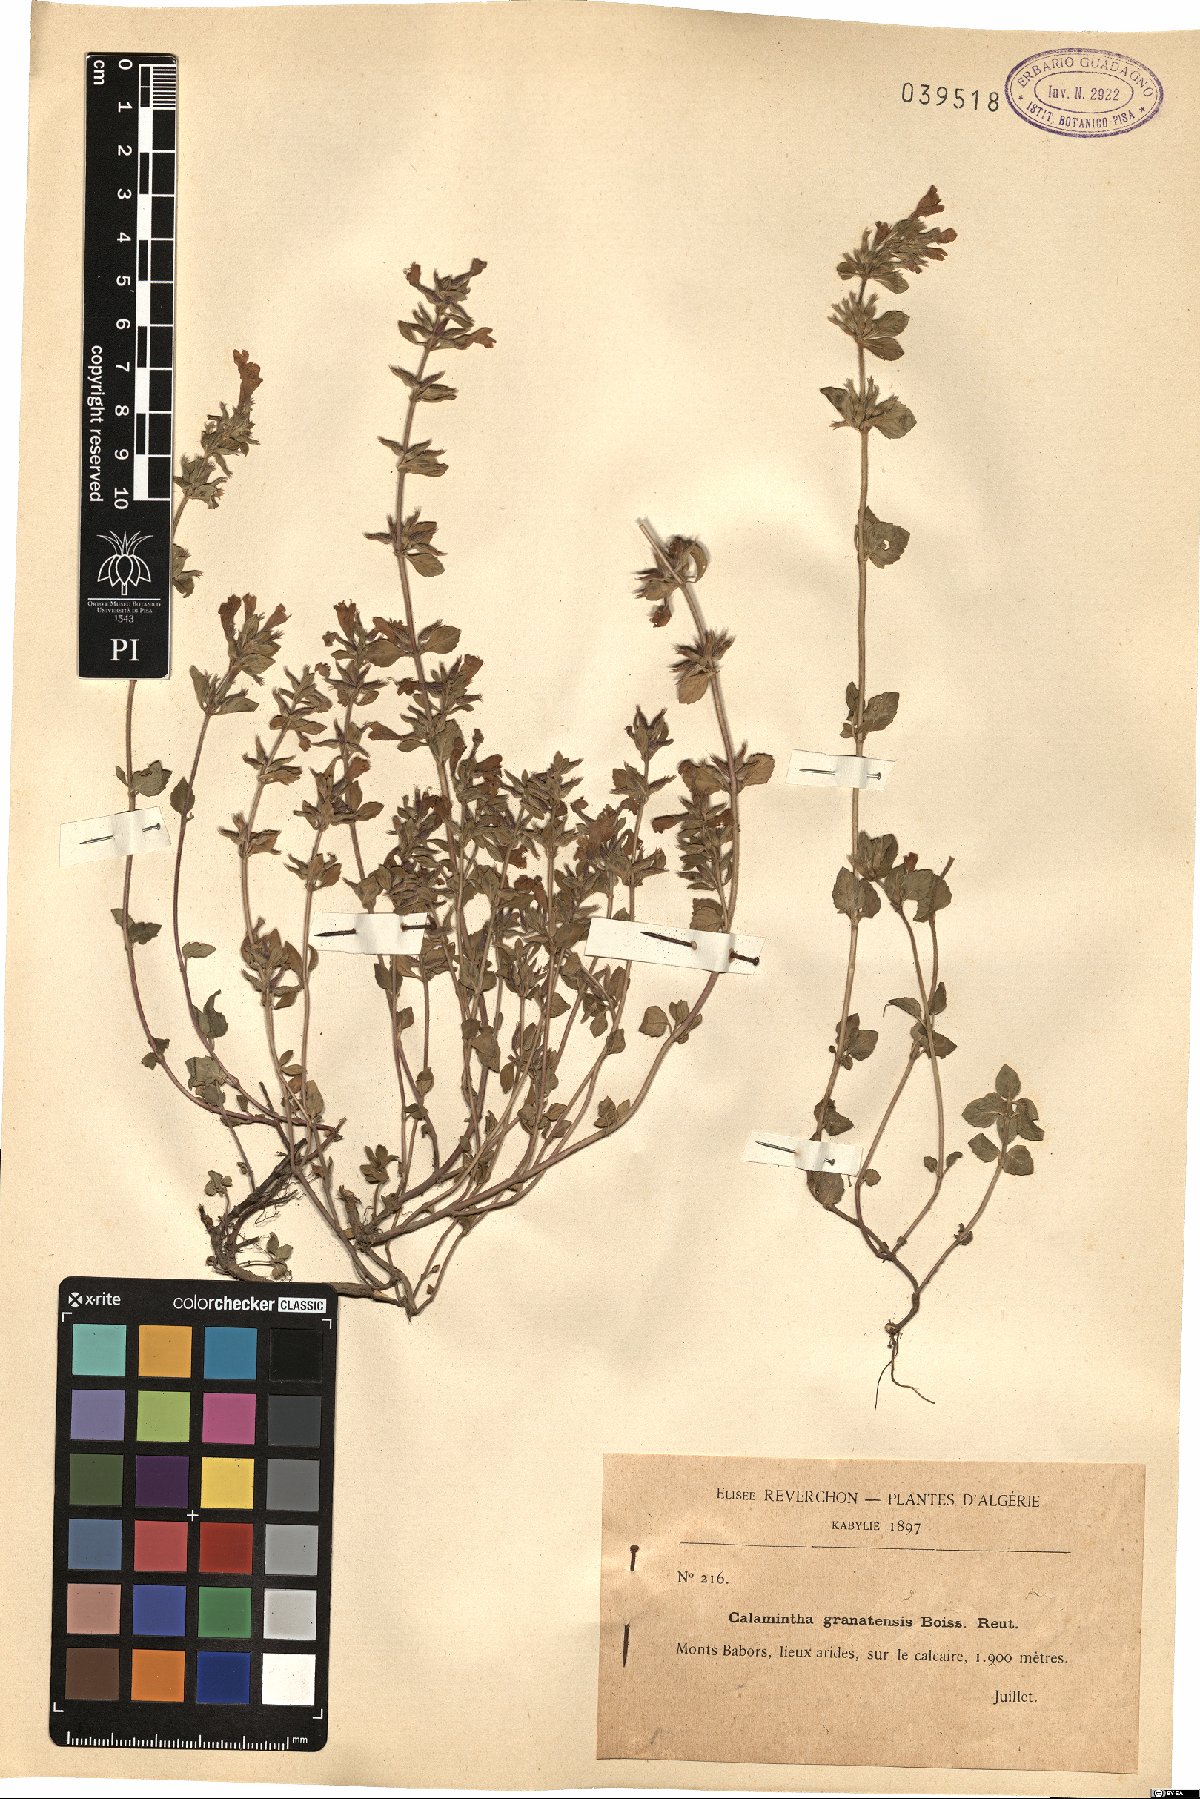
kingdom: Plantae
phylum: Tracheophyta
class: Magnoliopsida
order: Lamiales
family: Lamiaceae
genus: Clinopodium
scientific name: Clinopodium alpinum
